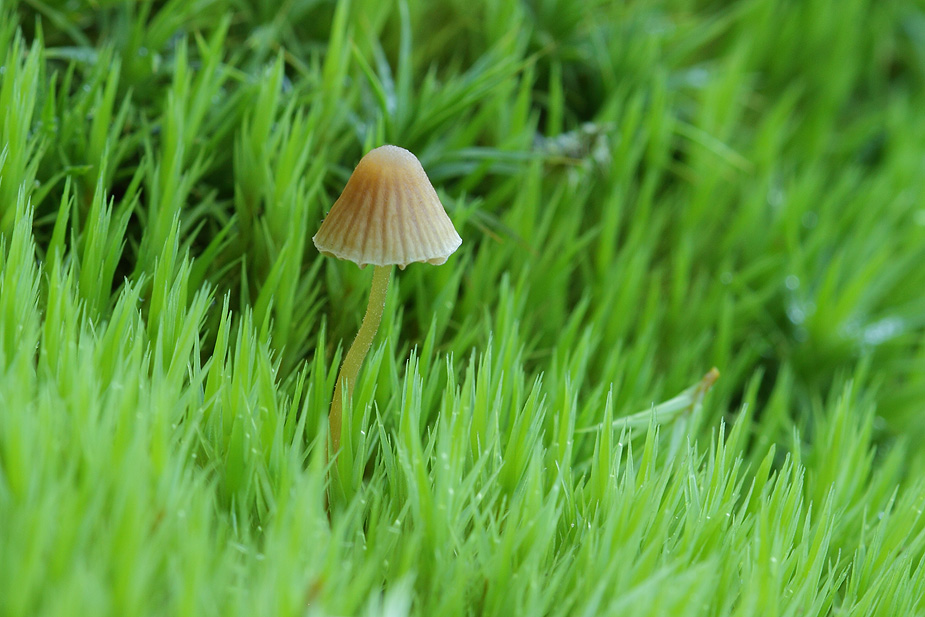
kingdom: Fungi
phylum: Basidiomycota
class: Agaricomycetes
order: Agaricales
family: Hymenogastraceae
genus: Galerina
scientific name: Galerina hypnorum
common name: mos-hjelmhat
